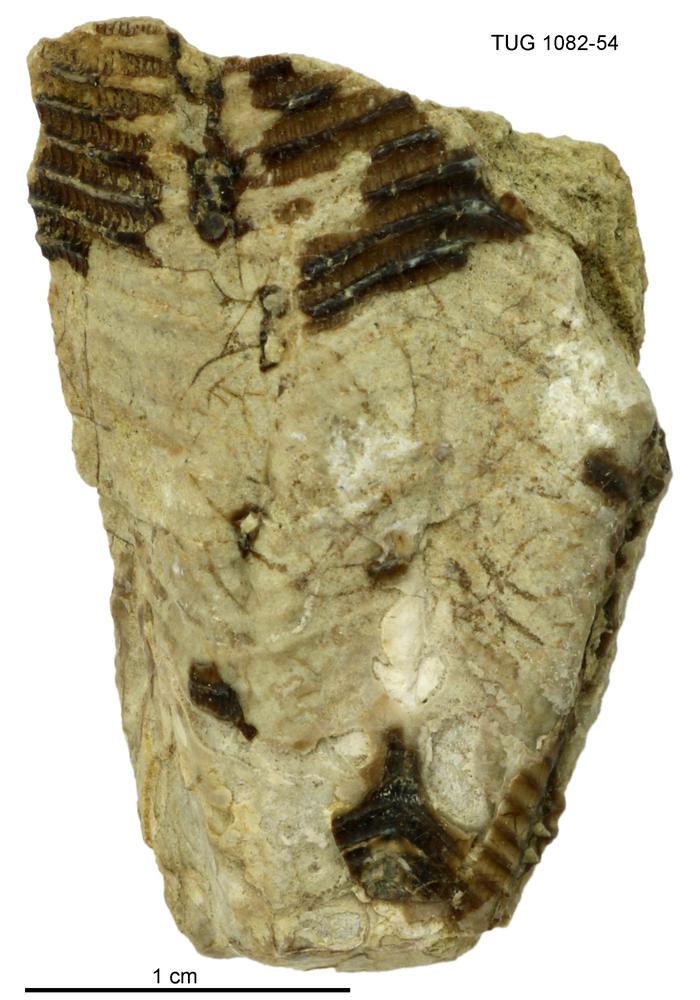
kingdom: Animalia
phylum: Cnidaria
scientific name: Cnidaria
